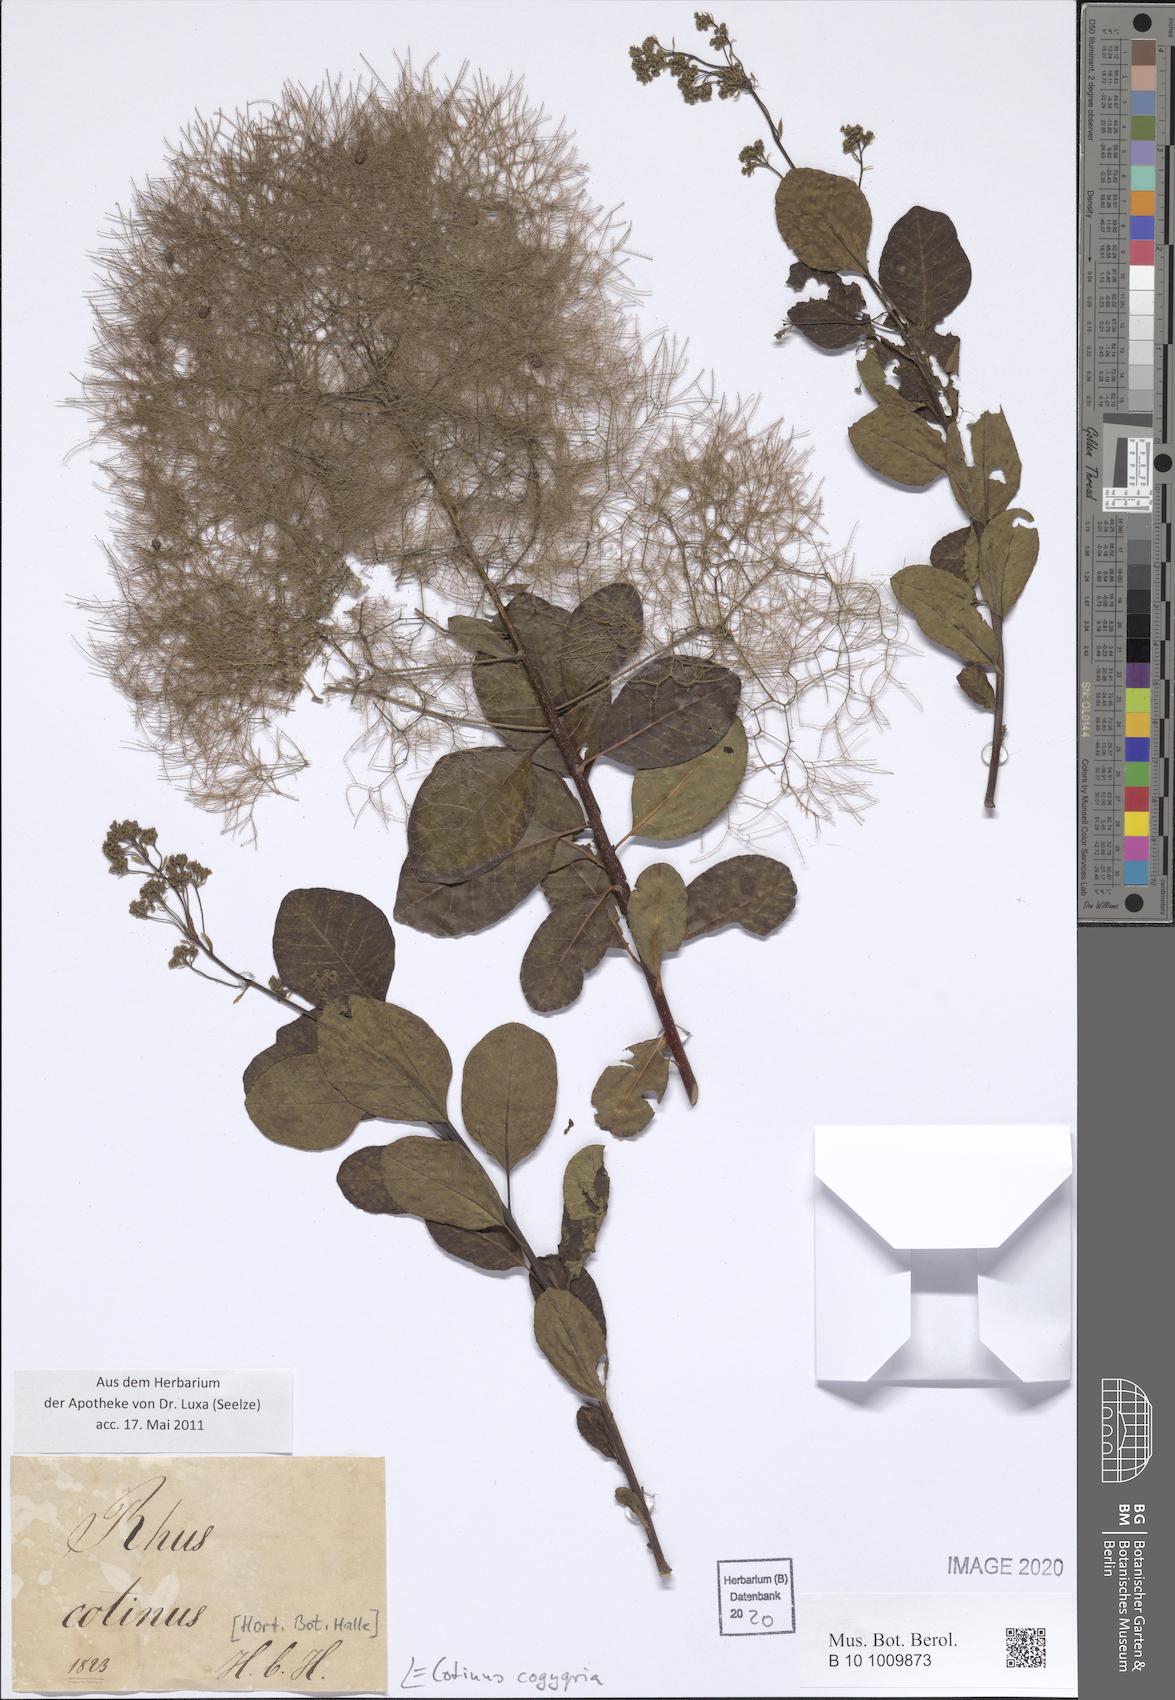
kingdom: Plantae
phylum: Tracheophyta
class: Magnoliopsida
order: Sapindales
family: Anacardiaceae
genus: Cotinus
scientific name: Cotinus coggygria
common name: Smoke-tree
